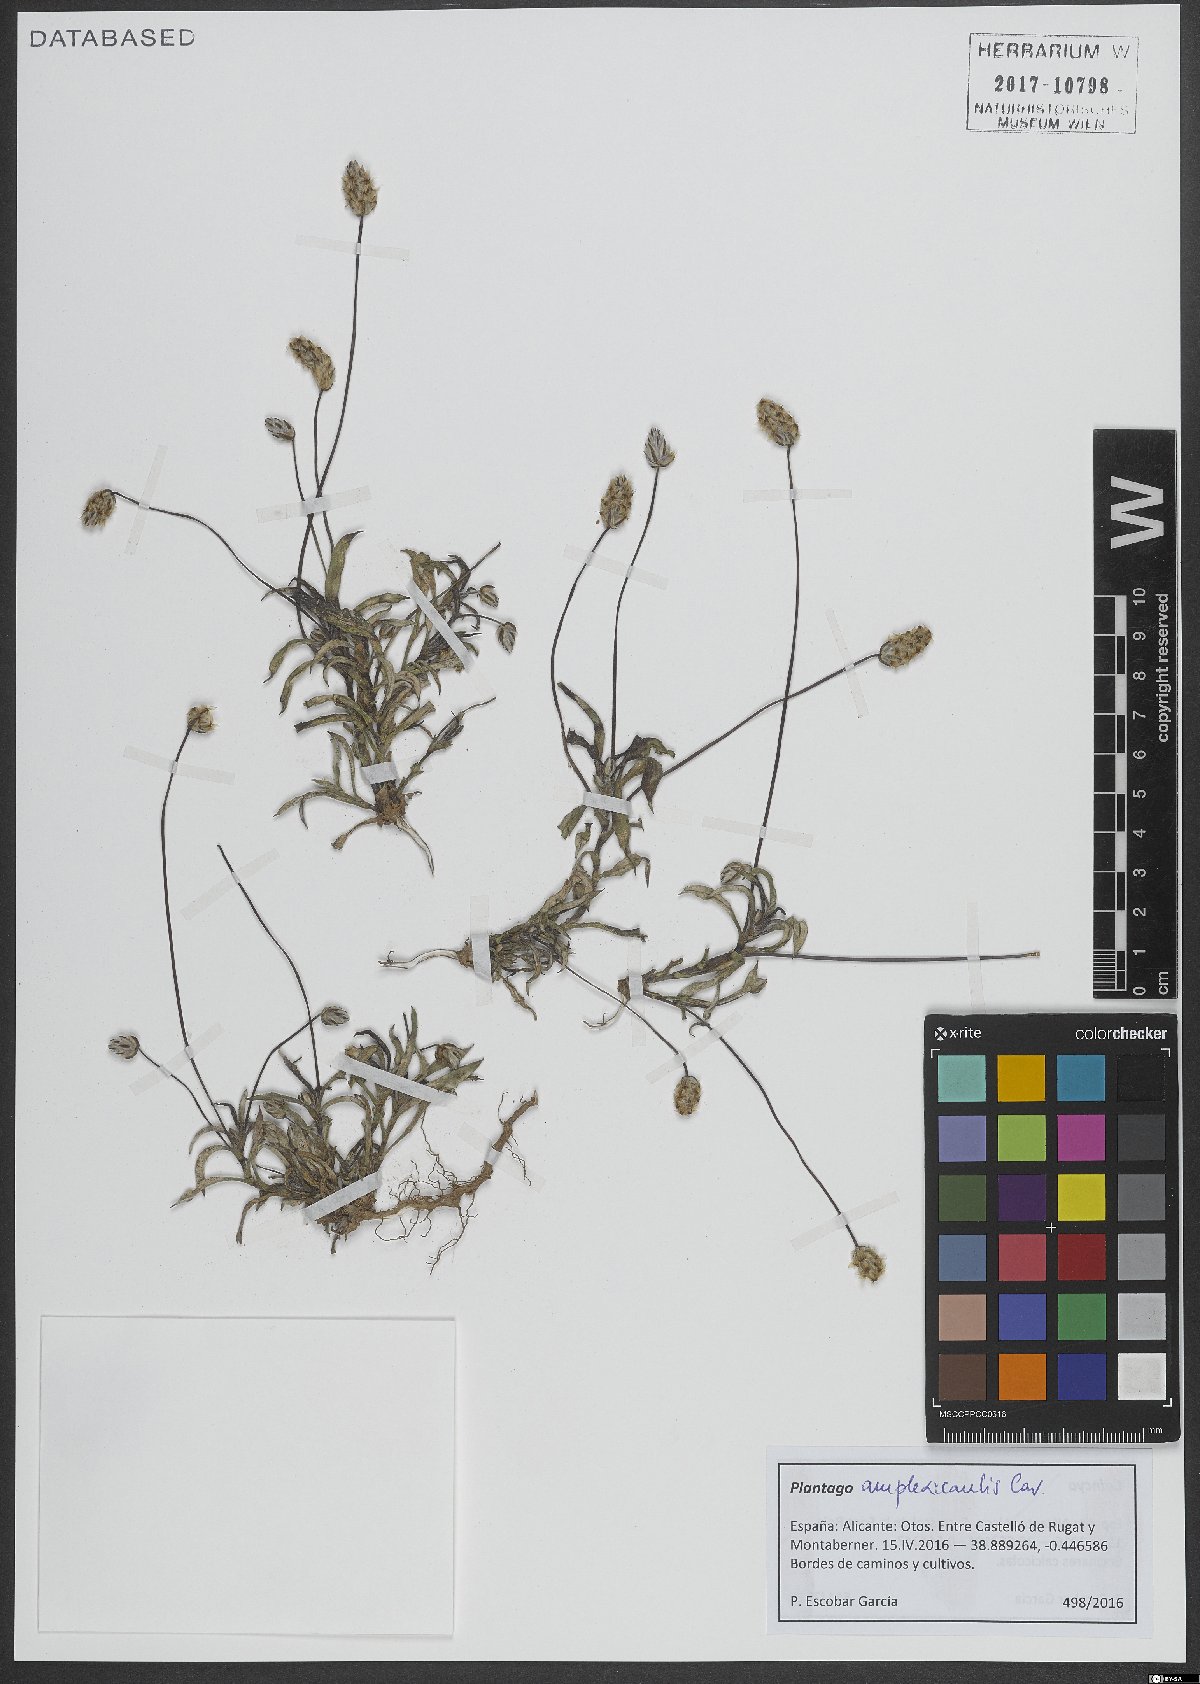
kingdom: Plantae
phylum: Tracheophyta
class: Magnoliopsida
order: Lamiales
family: Plantaginaceae
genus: Plantago
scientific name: Plantago amplexicaulis
